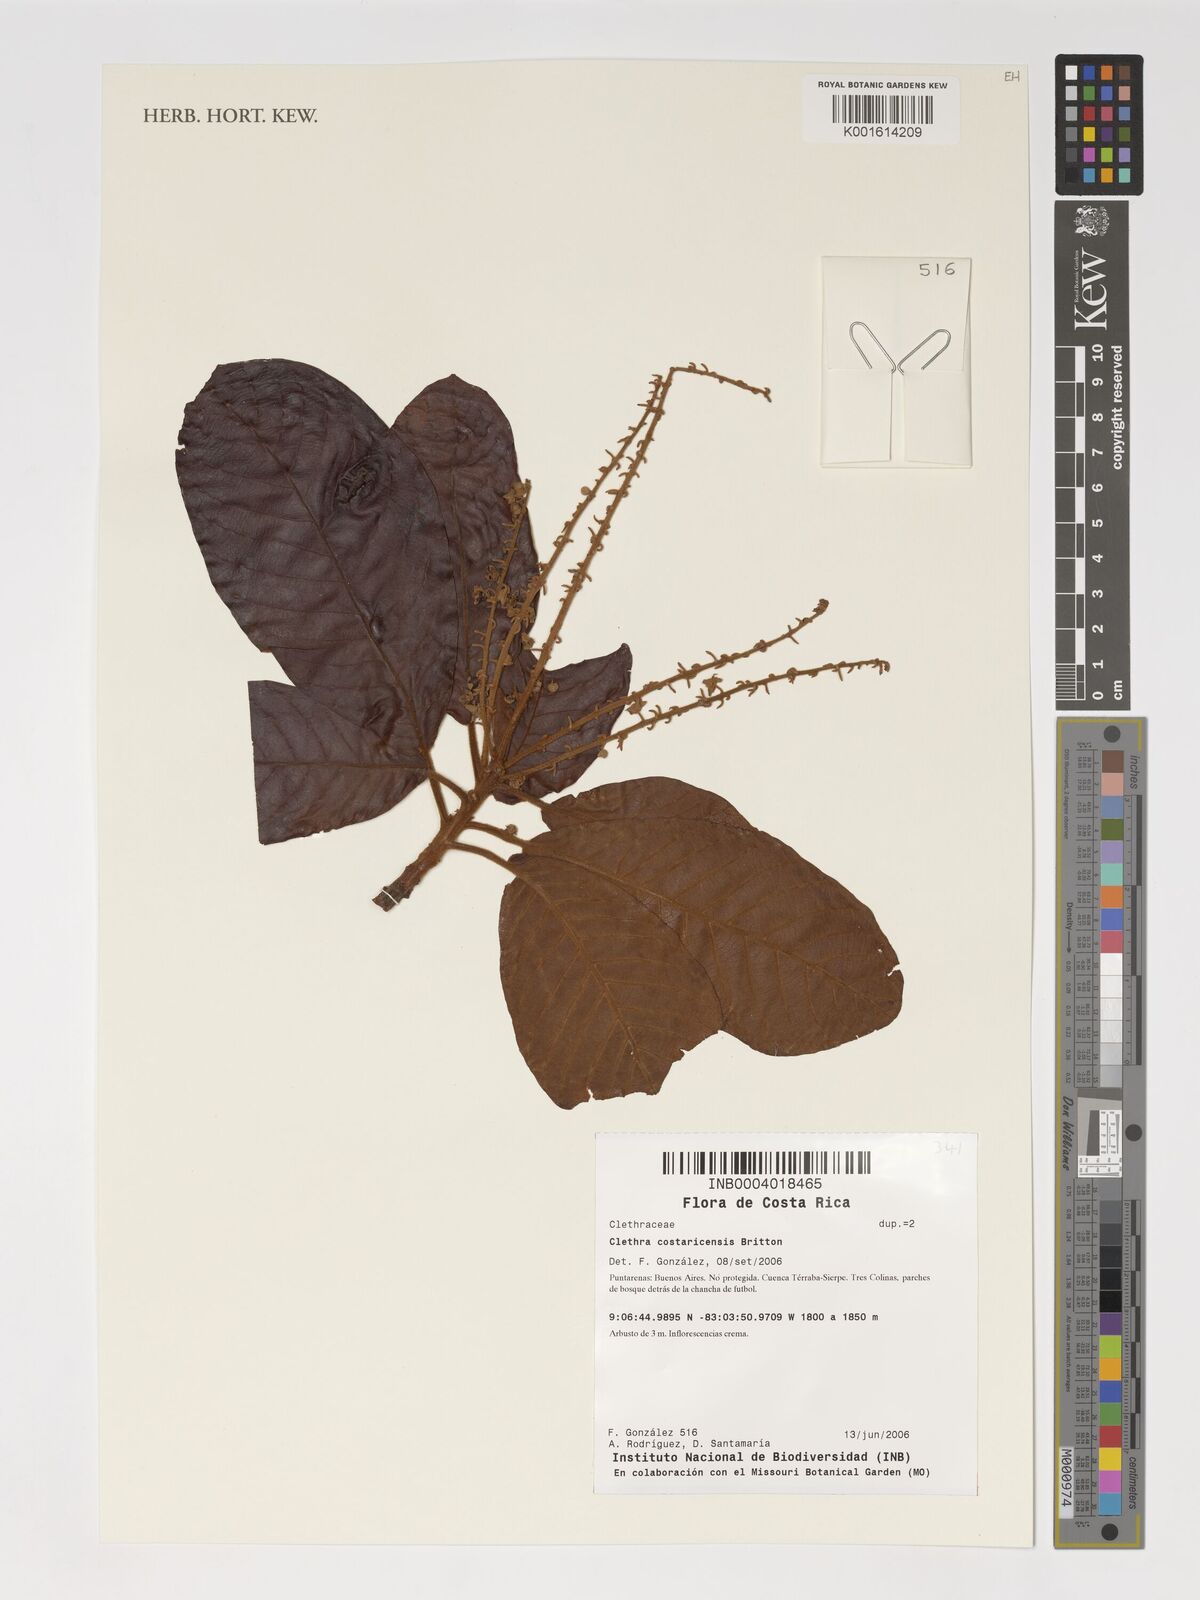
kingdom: Plantae
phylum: Tracheophyta
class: Magnoliopsida
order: Ericales
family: Clethraceae
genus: Clethra
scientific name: Clethra costaricensis
